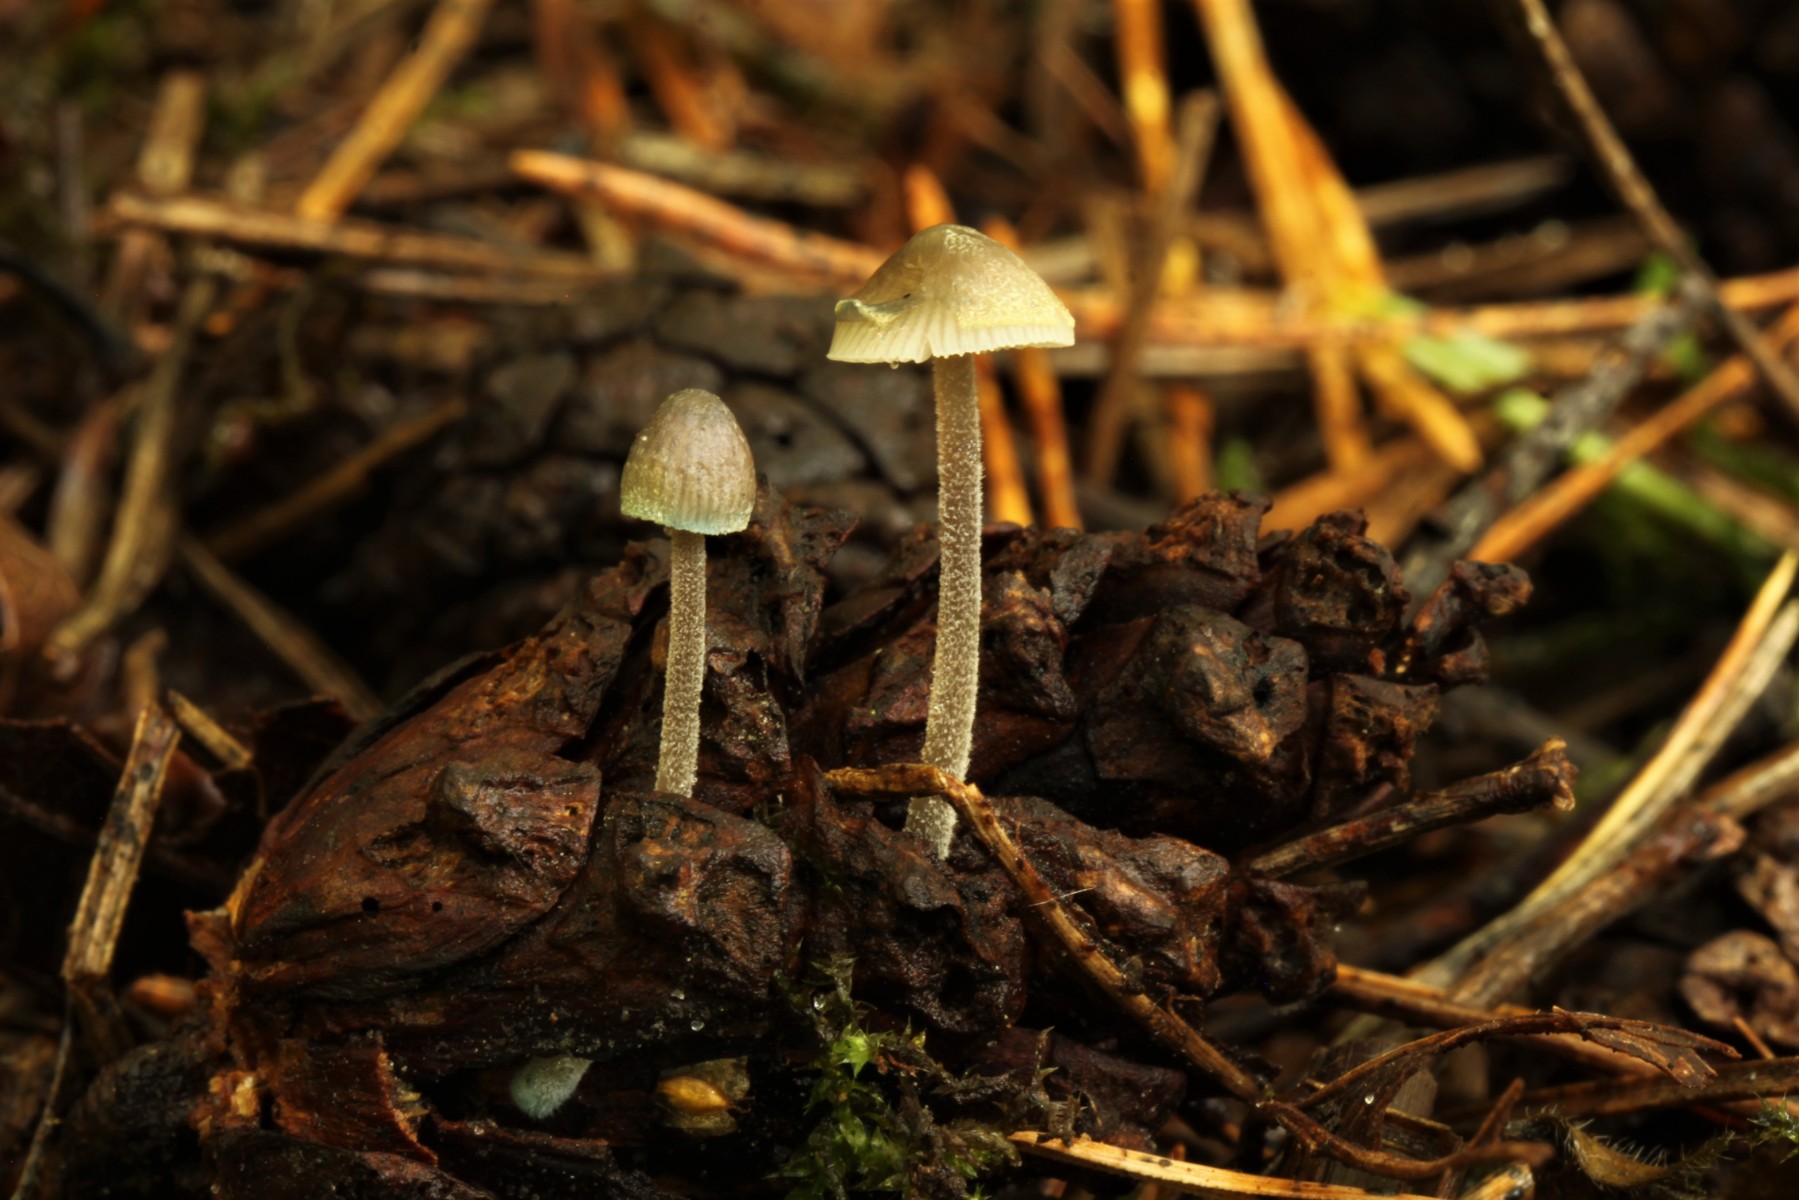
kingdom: Fungi
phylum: Basidiomycota
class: Agaricomycetes
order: Agaricales
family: Mycenaceae
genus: Mycena
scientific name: Mycena amicta
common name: iris-huesvamp
